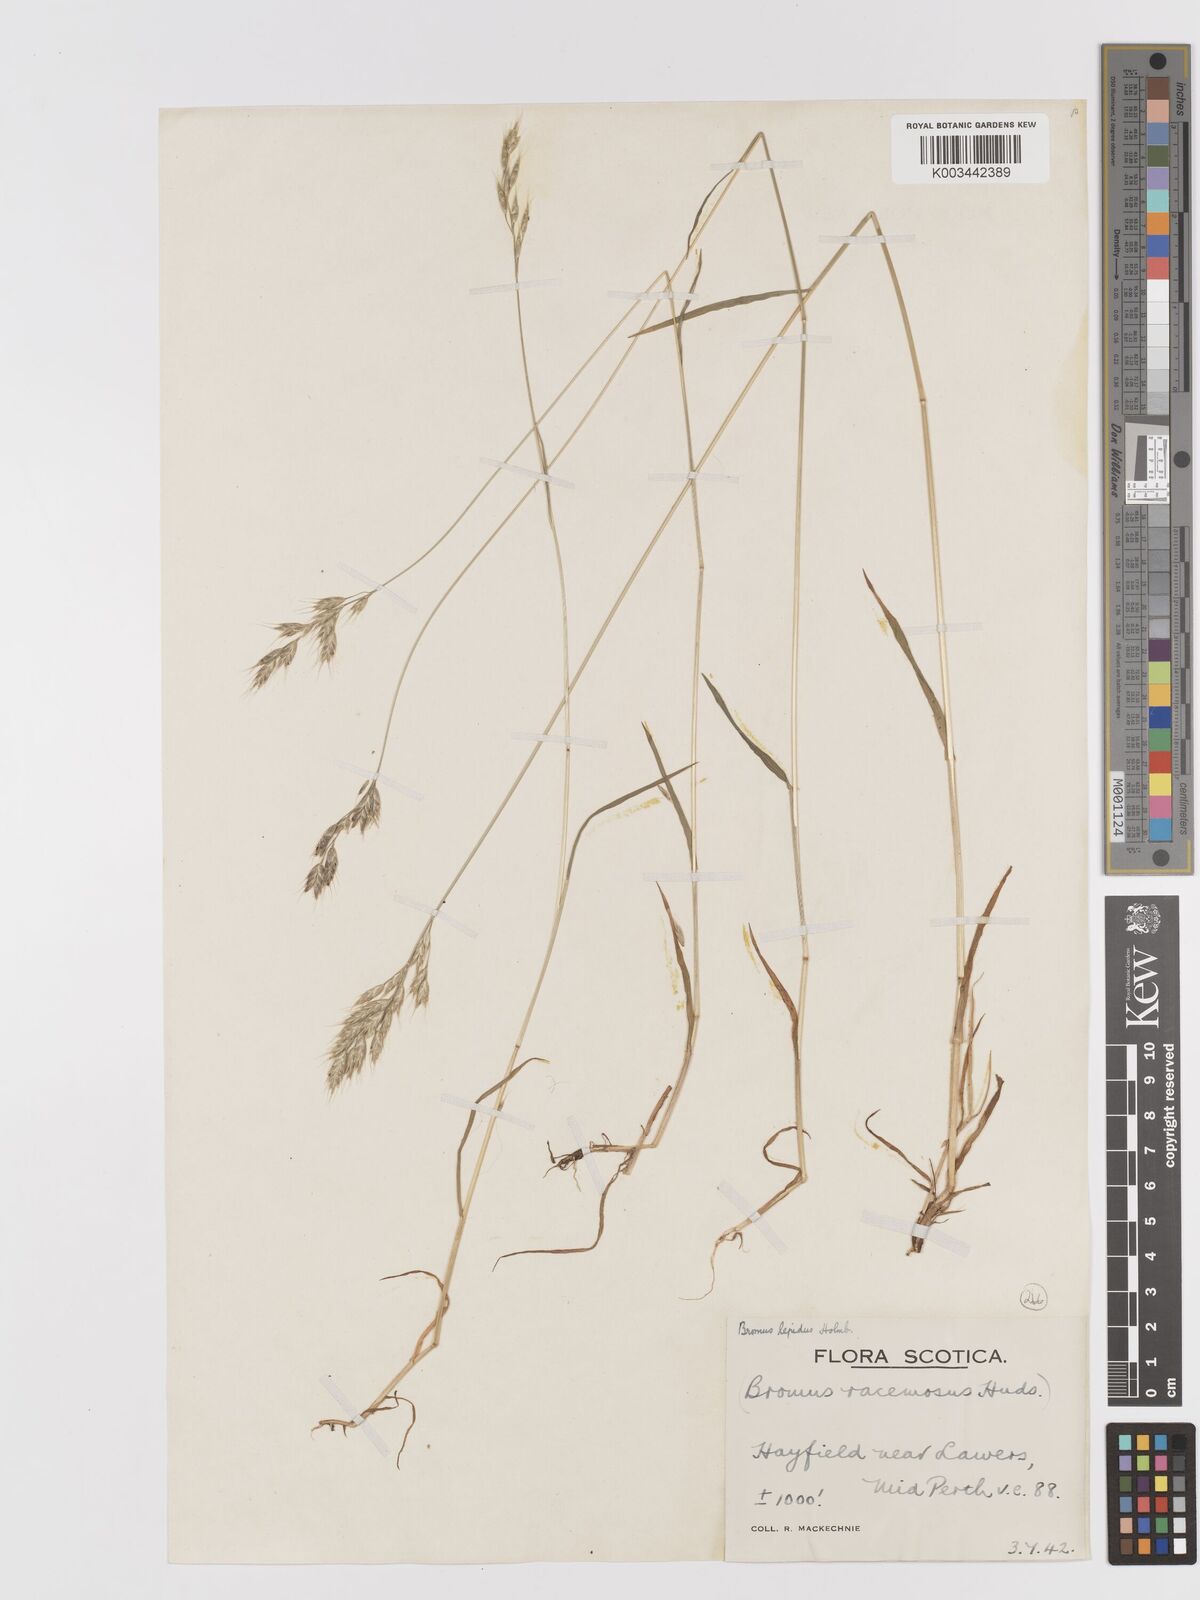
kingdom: Plantae
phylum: Tracheophyta
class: Liliopsida
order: Poales
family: Poaceae
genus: Bromus
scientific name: Bromus lepidus
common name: Slender soft-brome
